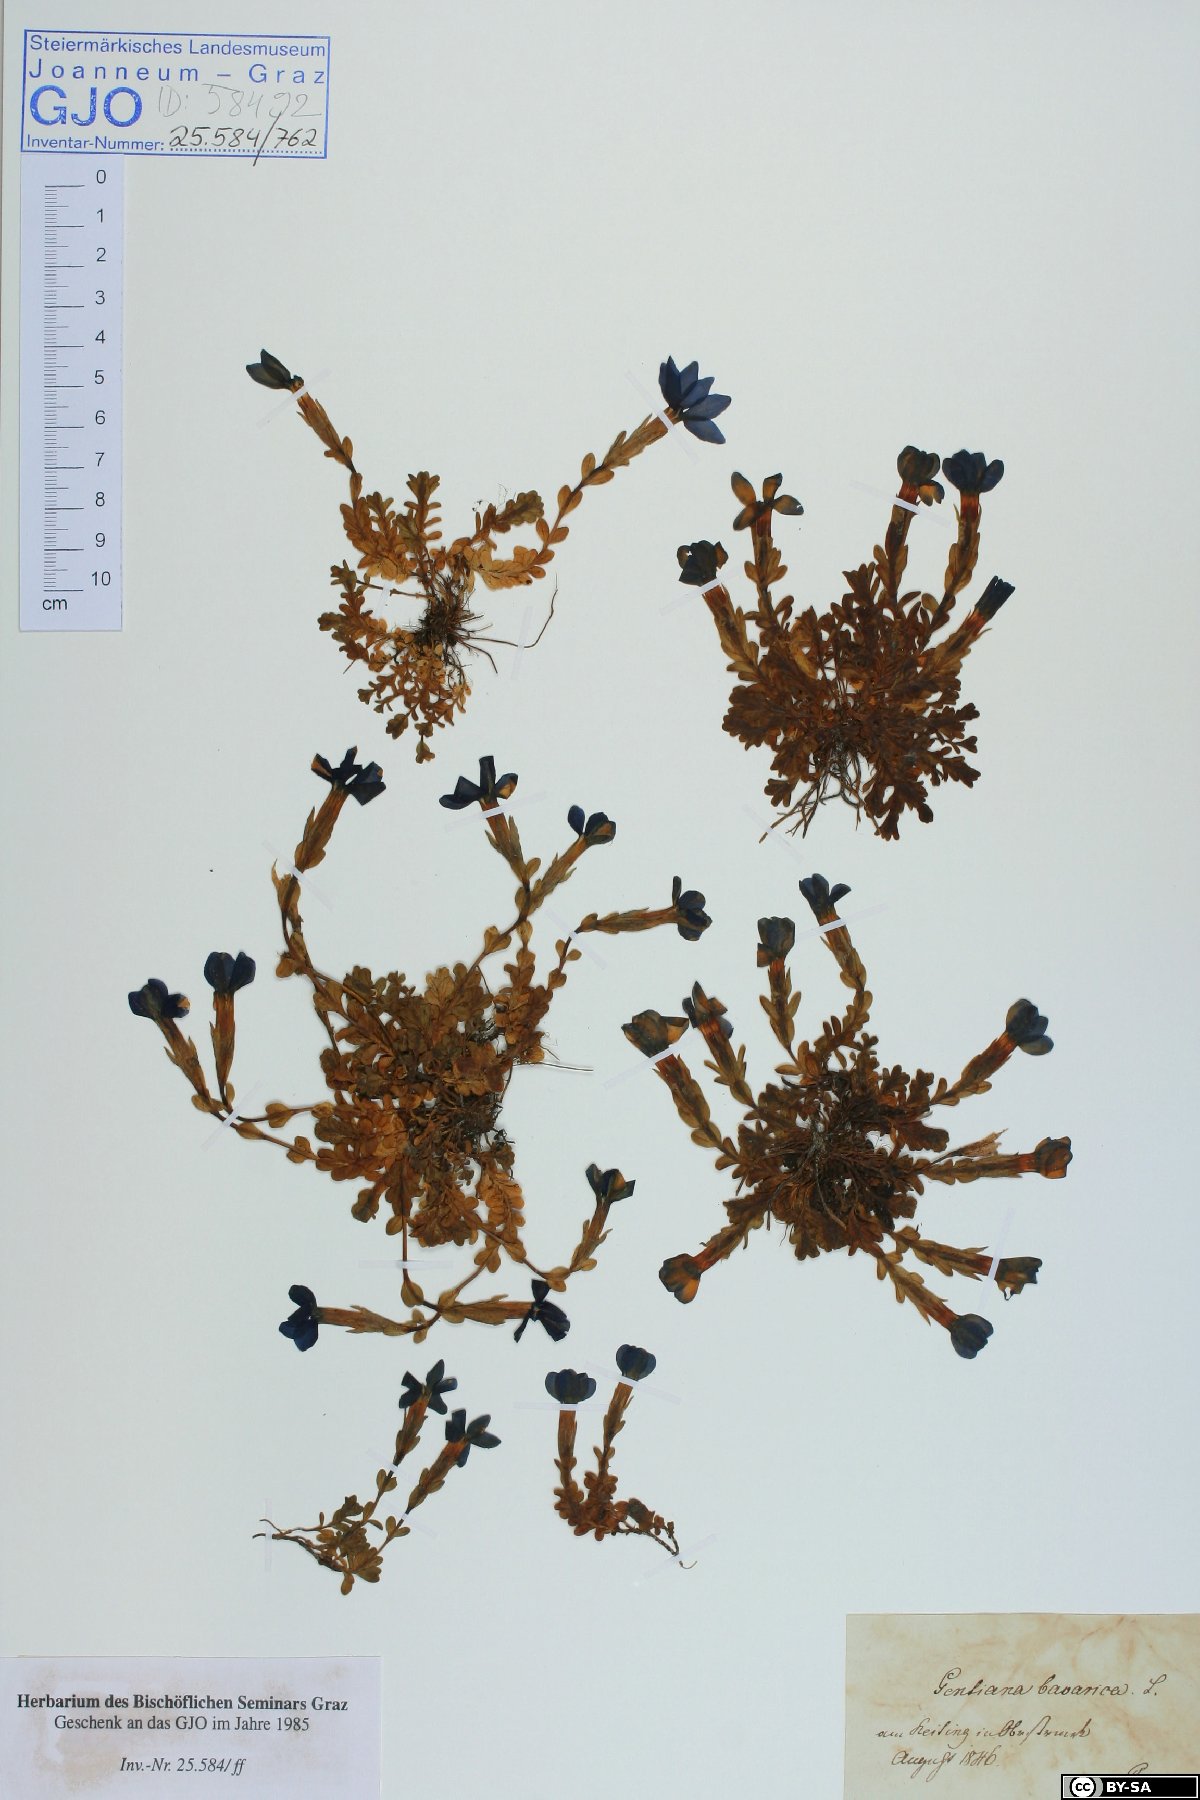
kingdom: Plantae
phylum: Tracheophyta
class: Magnoliopsida
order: Gentianales
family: Gentianaceae
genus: Gentiana
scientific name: Gentiana bavarica
